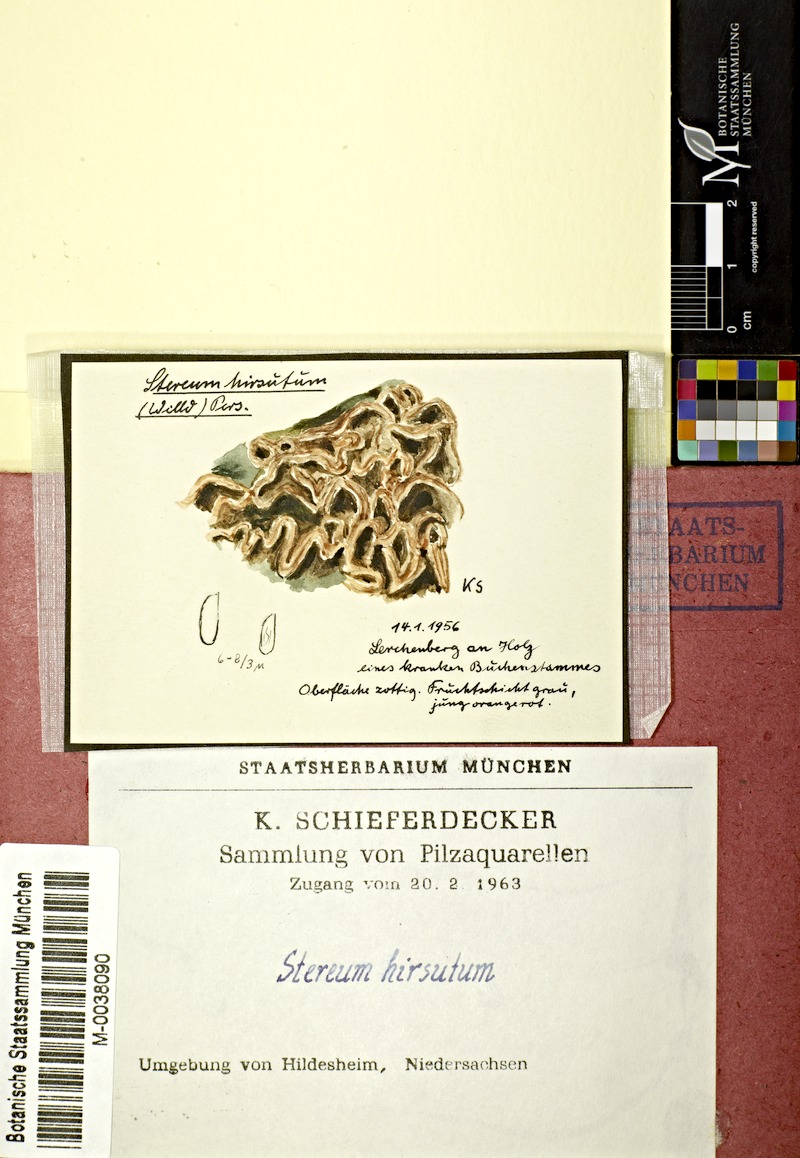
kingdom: Fungi
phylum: Basidiomycota
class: Agaricomycetes
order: Russulales
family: Stereaceae
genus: Stereum
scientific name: Stereum hirsutum
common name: Hairy curtain crust
